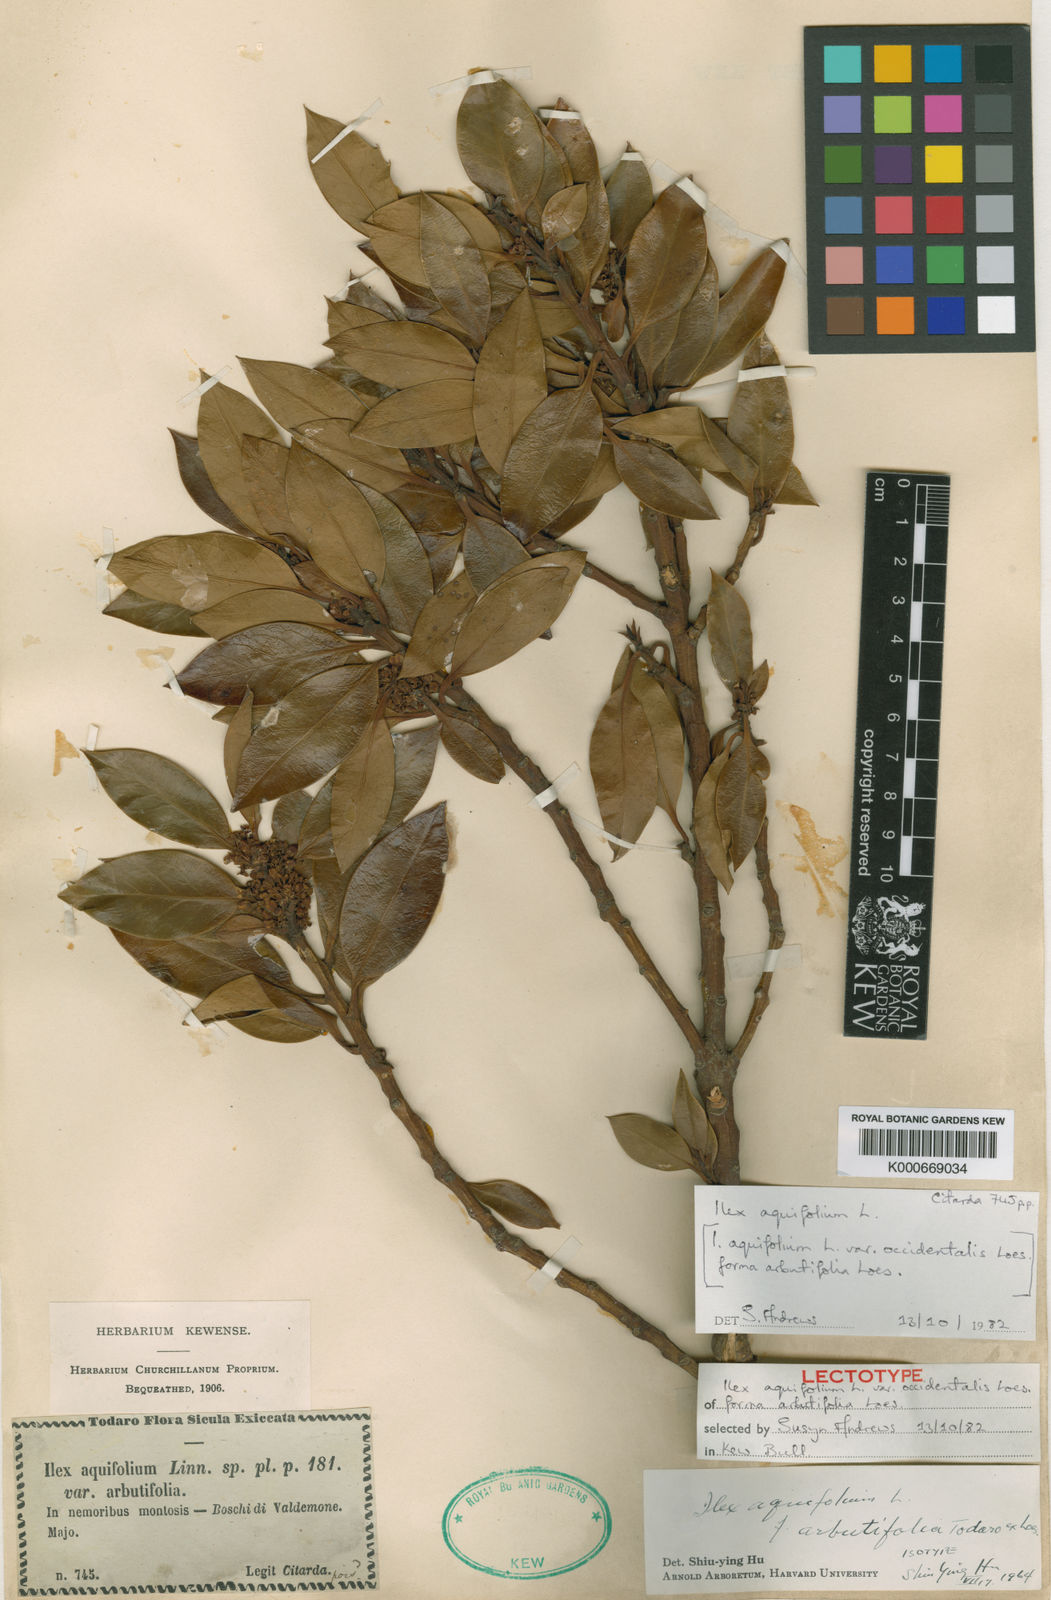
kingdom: Plantae
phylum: Tracheophyta
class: Magnoliopsida
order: Aquifoliales
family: Aquifoliaceae
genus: Ilex
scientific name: Ilex aquifolium
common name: English holly
